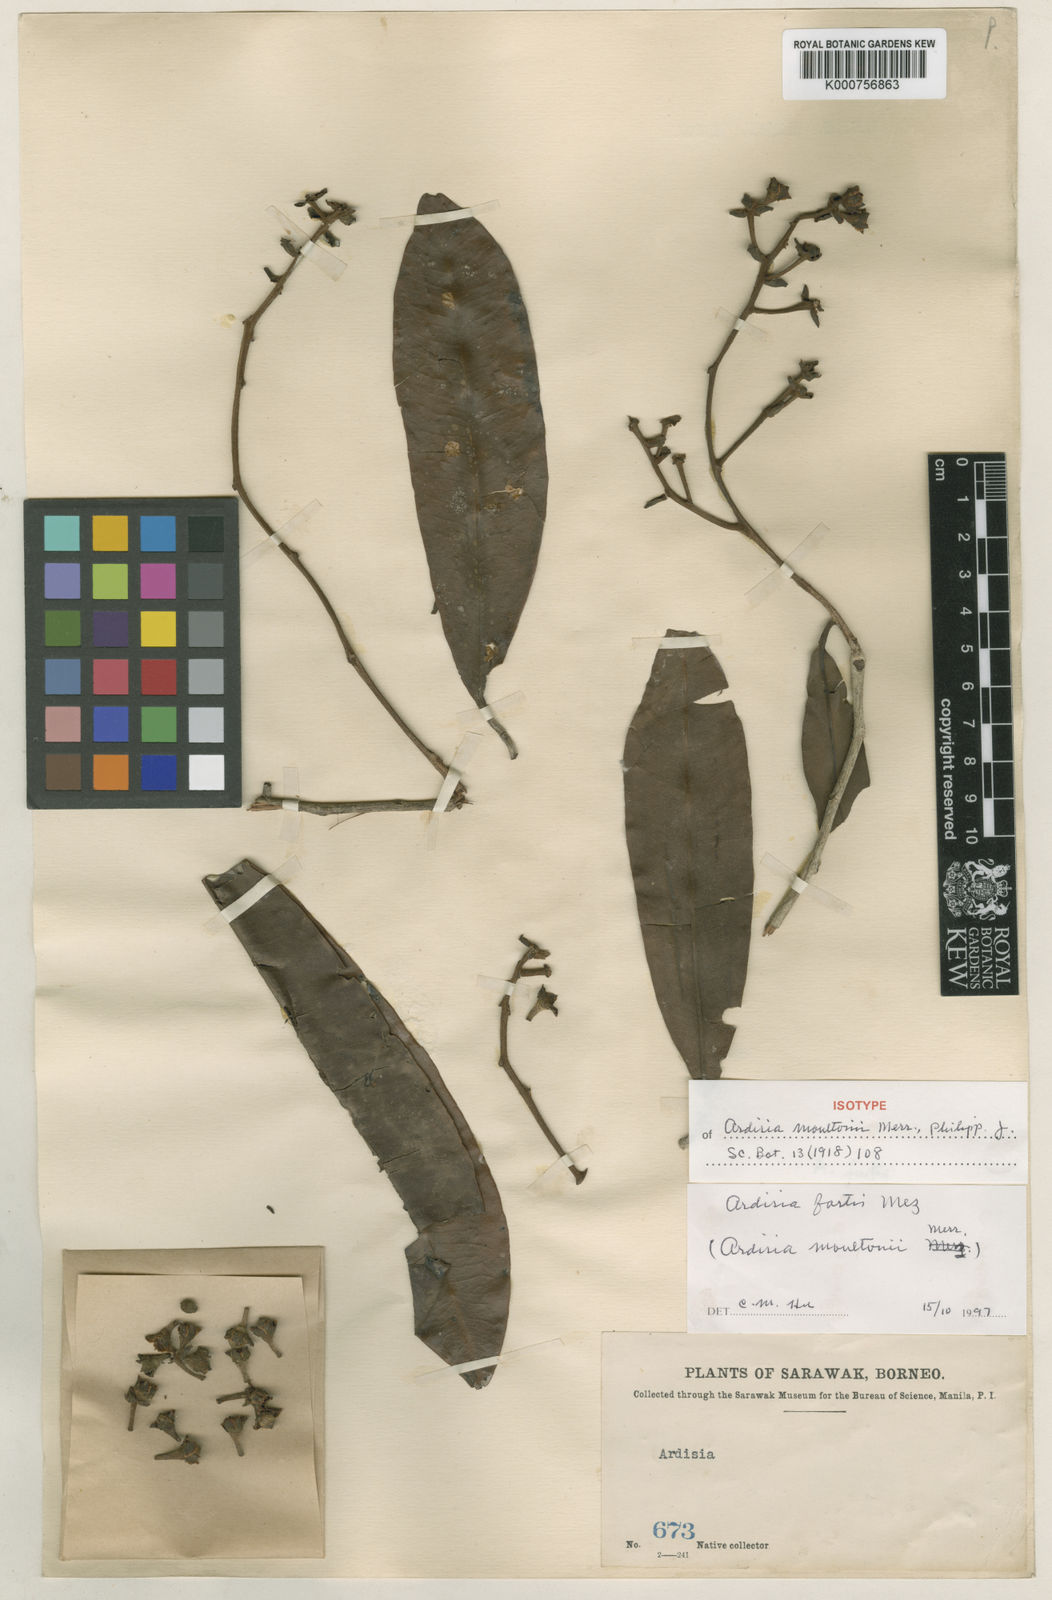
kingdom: Plantae
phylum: Tracheophyta
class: Magnoliopsida
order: Ericales
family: Primulaceae
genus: Ardisia
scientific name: Ardisia fortis
